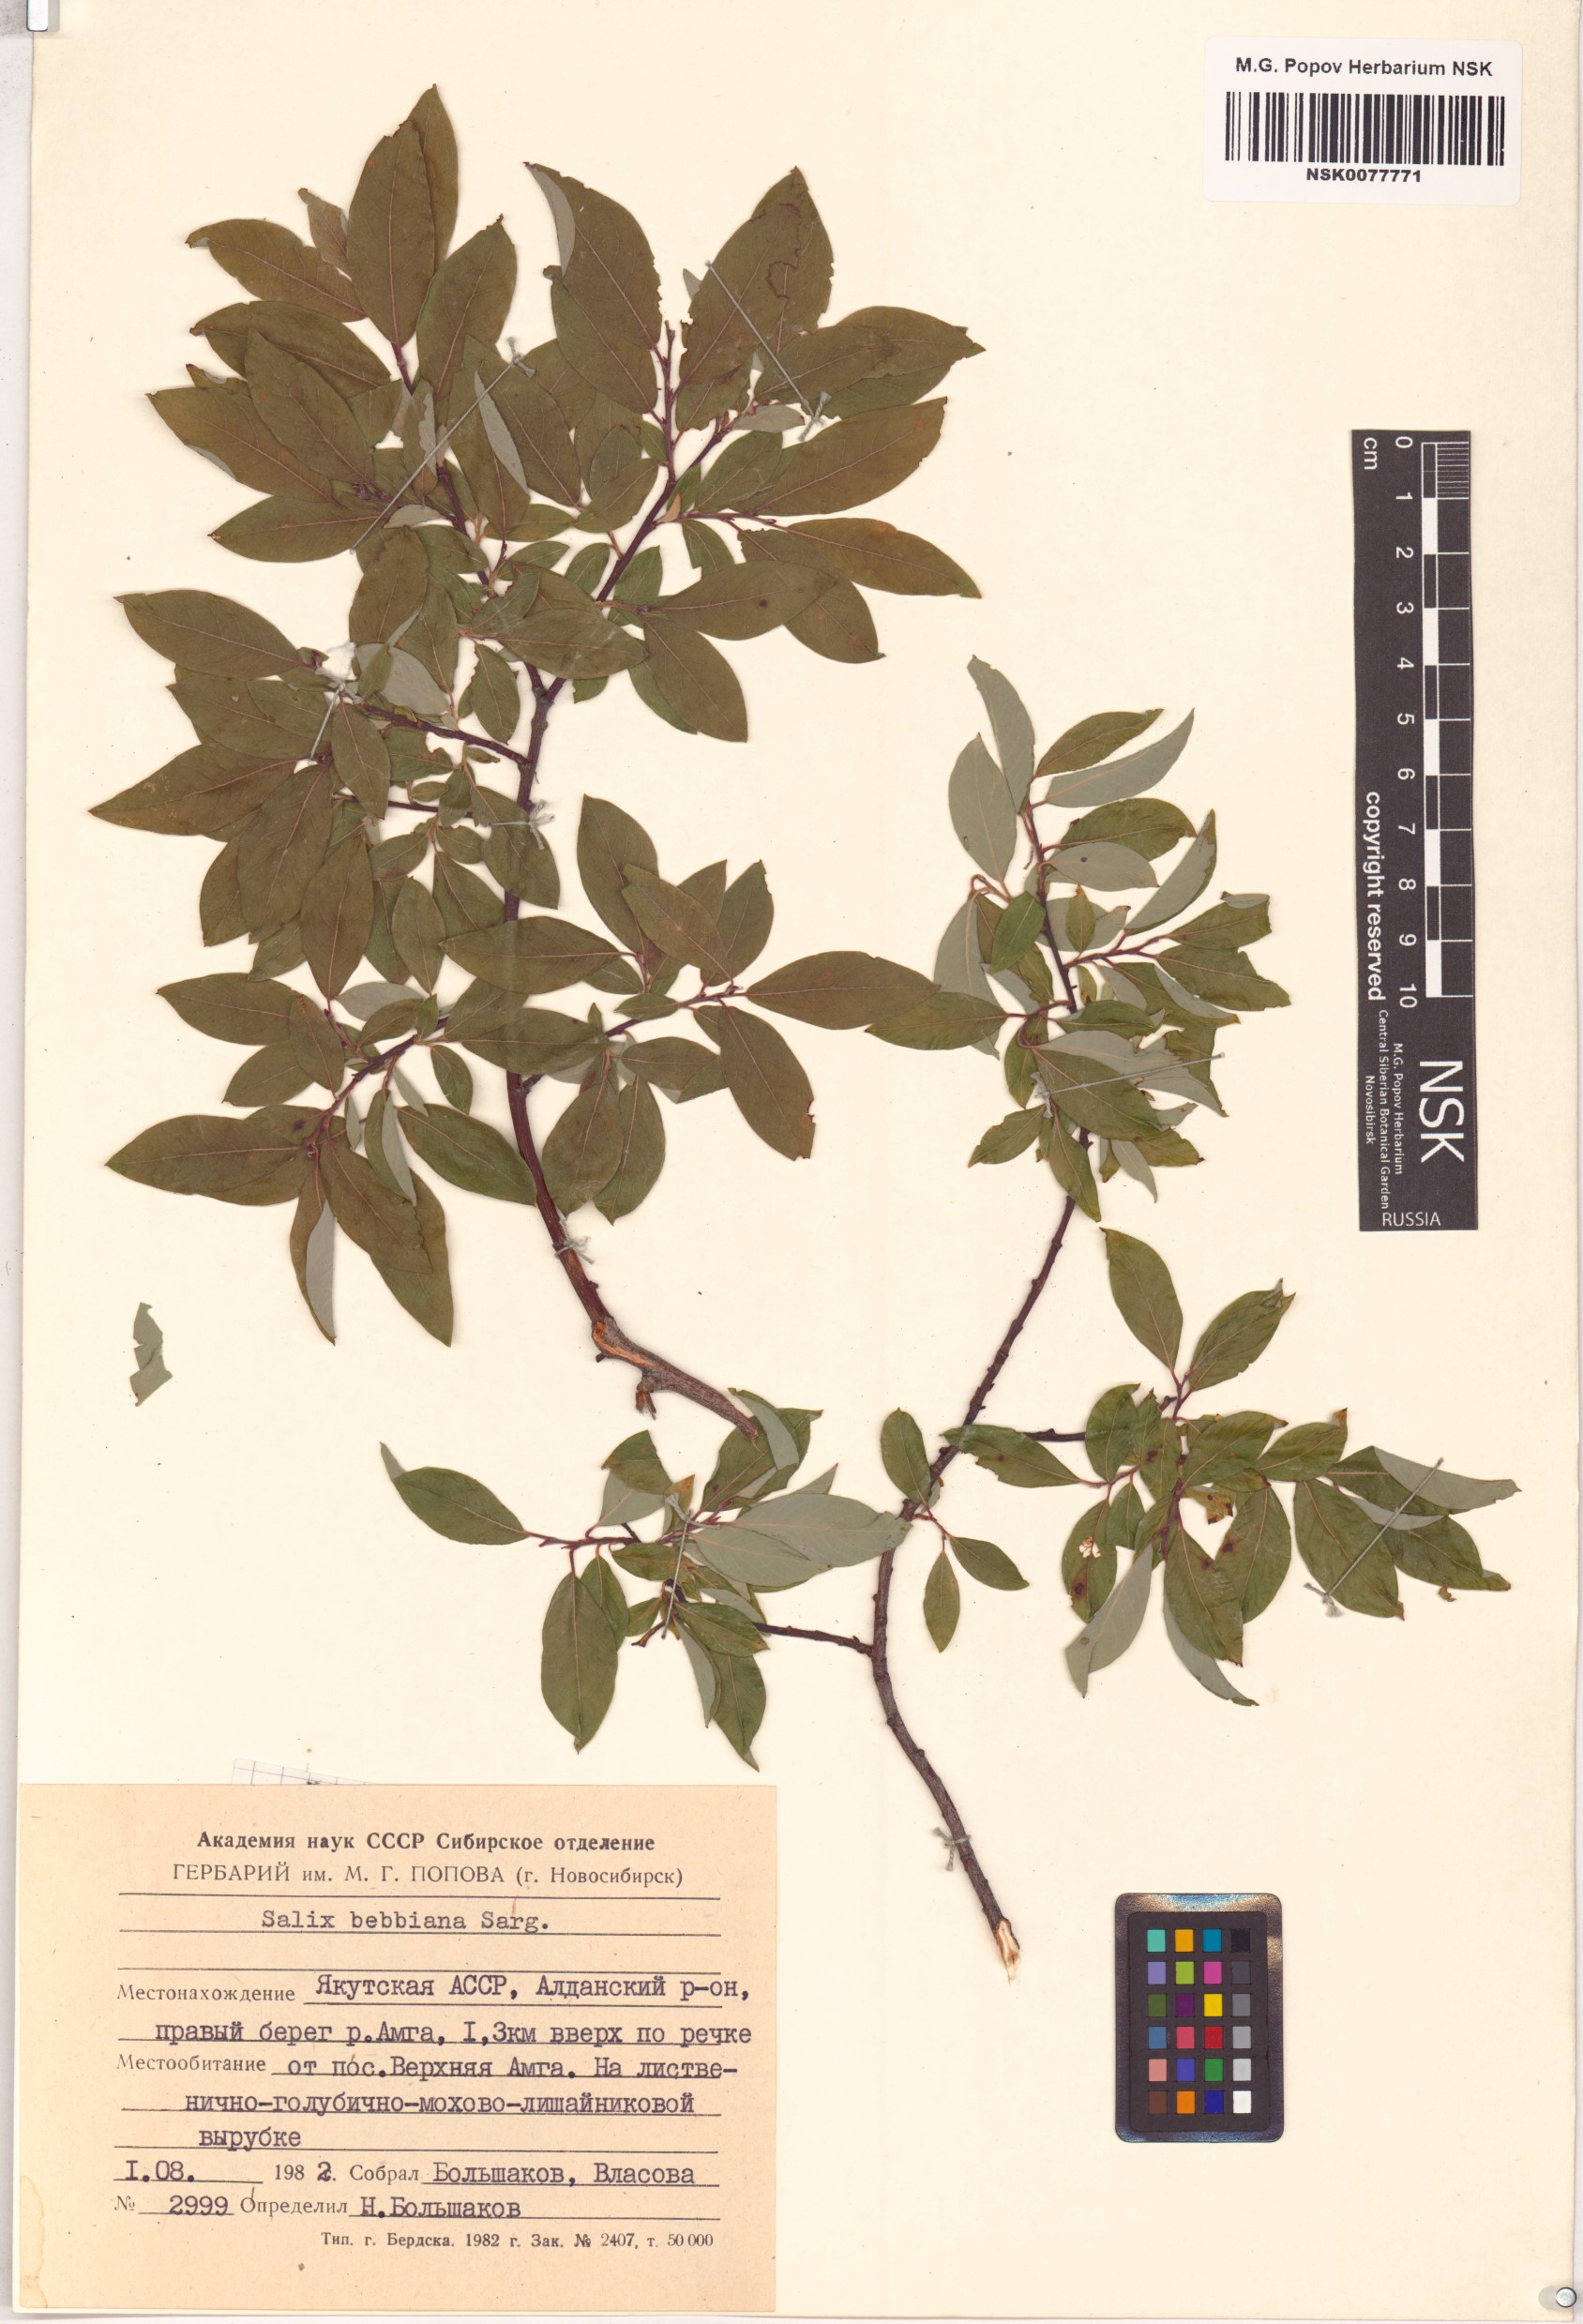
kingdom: Plantae
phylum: Tracheophyta
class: Magnoliopsida
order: Malpighiales
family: Salicaceae
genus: Salix
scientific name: Salix bebbiana
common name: Bebb's willow
